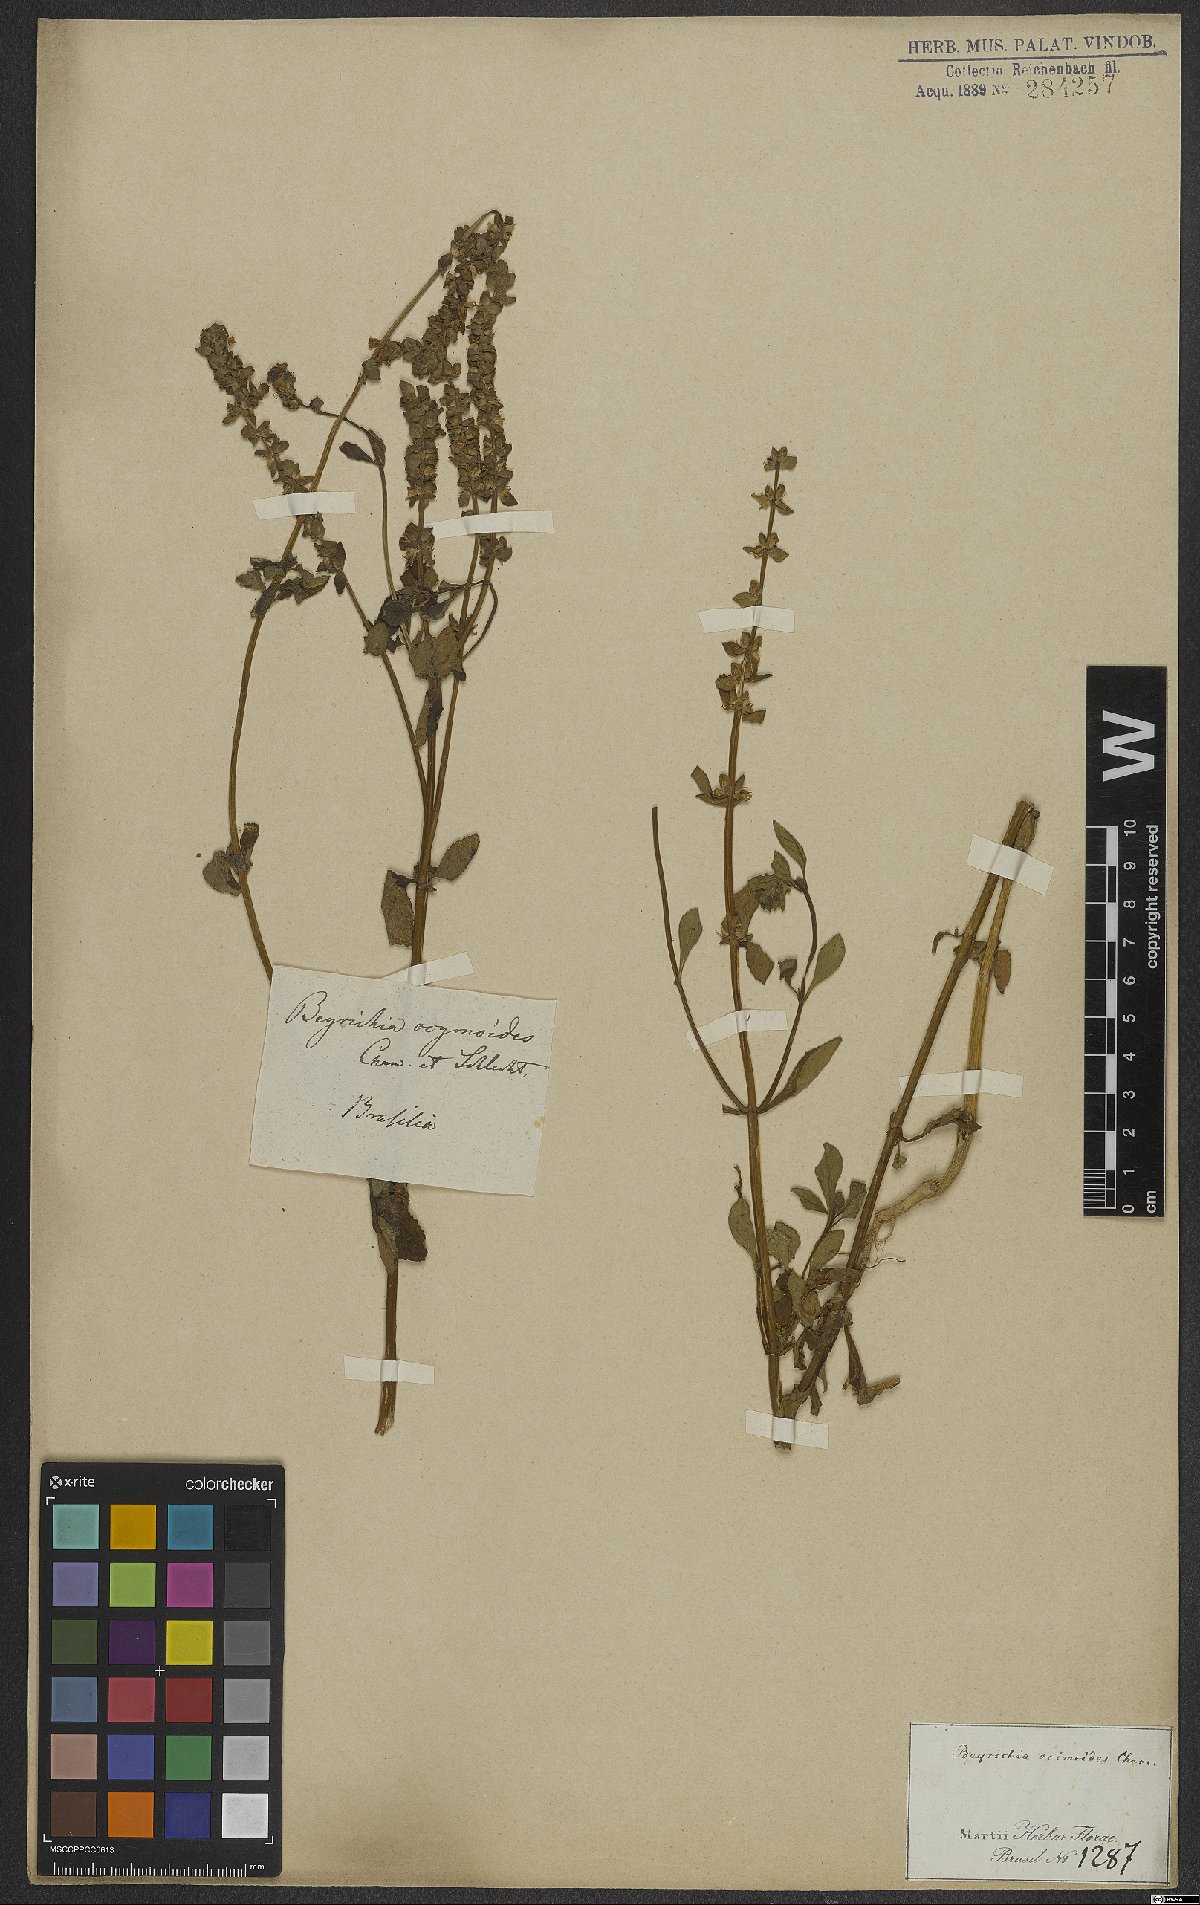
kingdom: Plantae
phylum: Tracheophyta
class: Magnoliopsida
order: Lamiales
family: Plantaginaceae
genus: Matourea
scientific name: Matourea ocymoides
